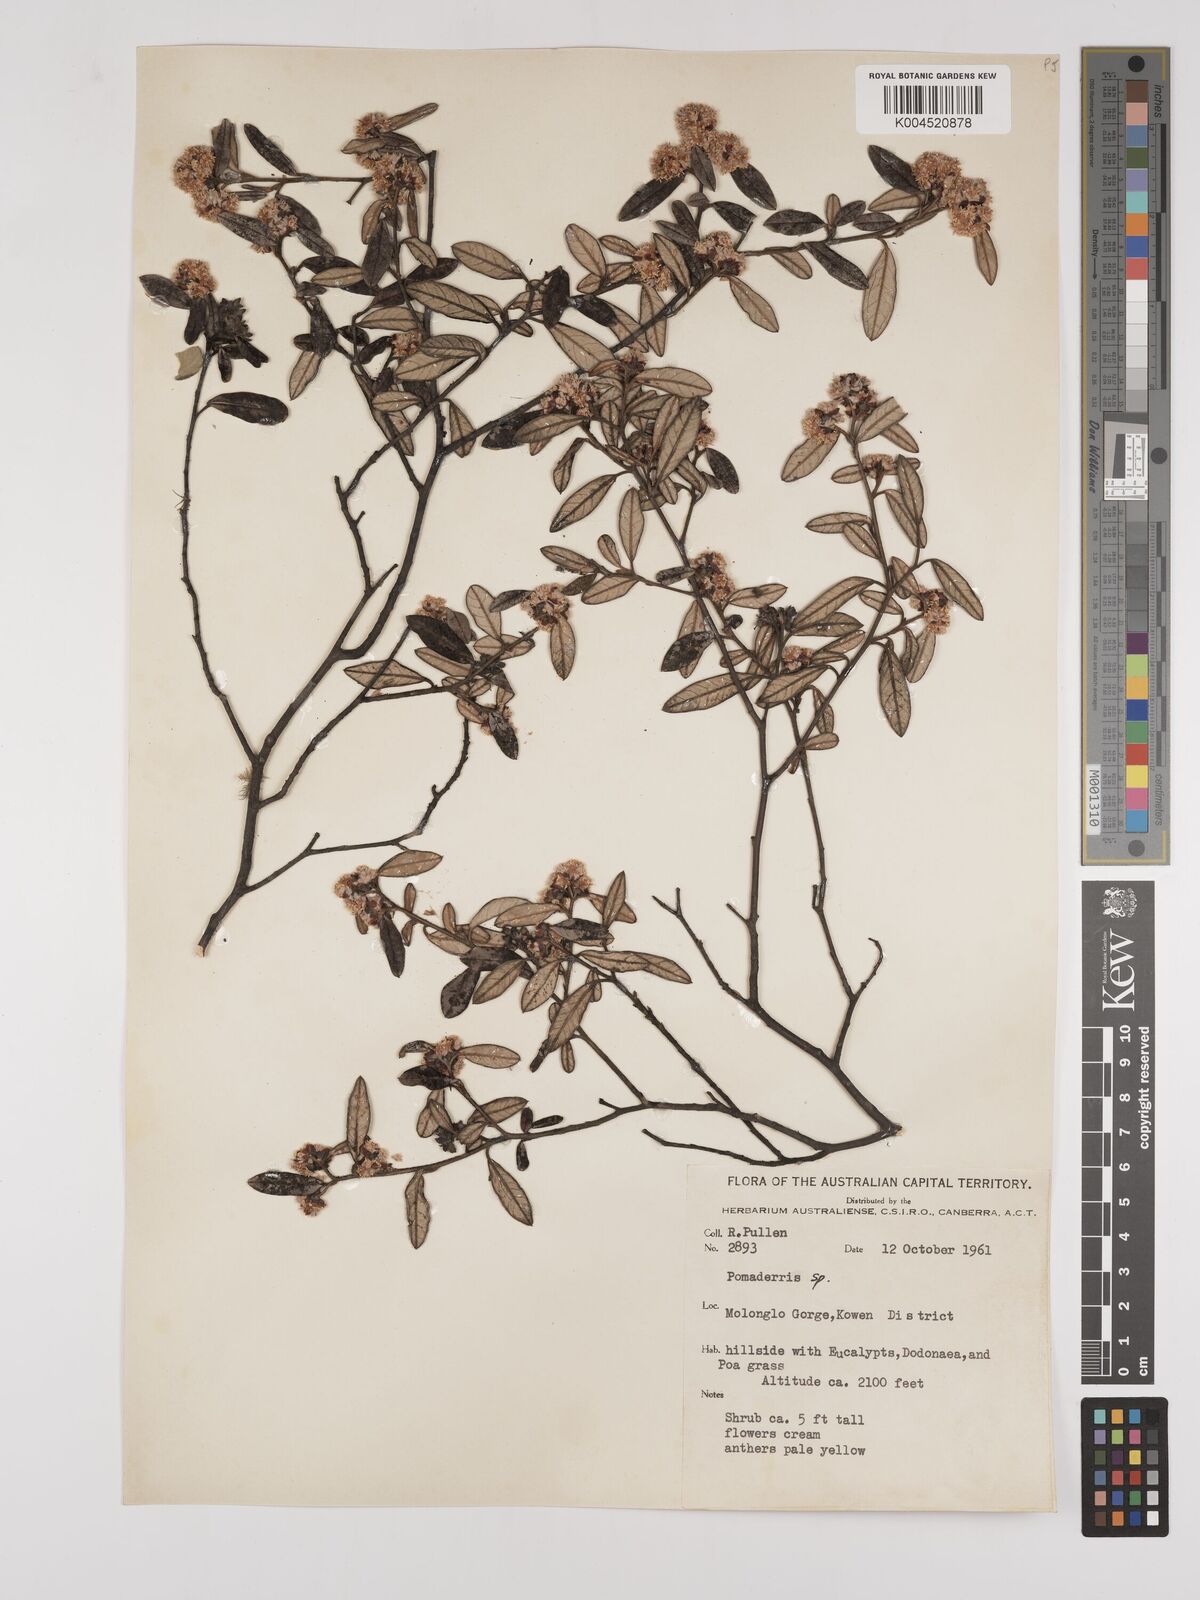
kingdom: Plantae
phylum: Tracheophyta
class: Magnoliopsida
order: Rosales
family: Rhamnaceae
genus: Pomaderris
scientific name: Pomaderris
